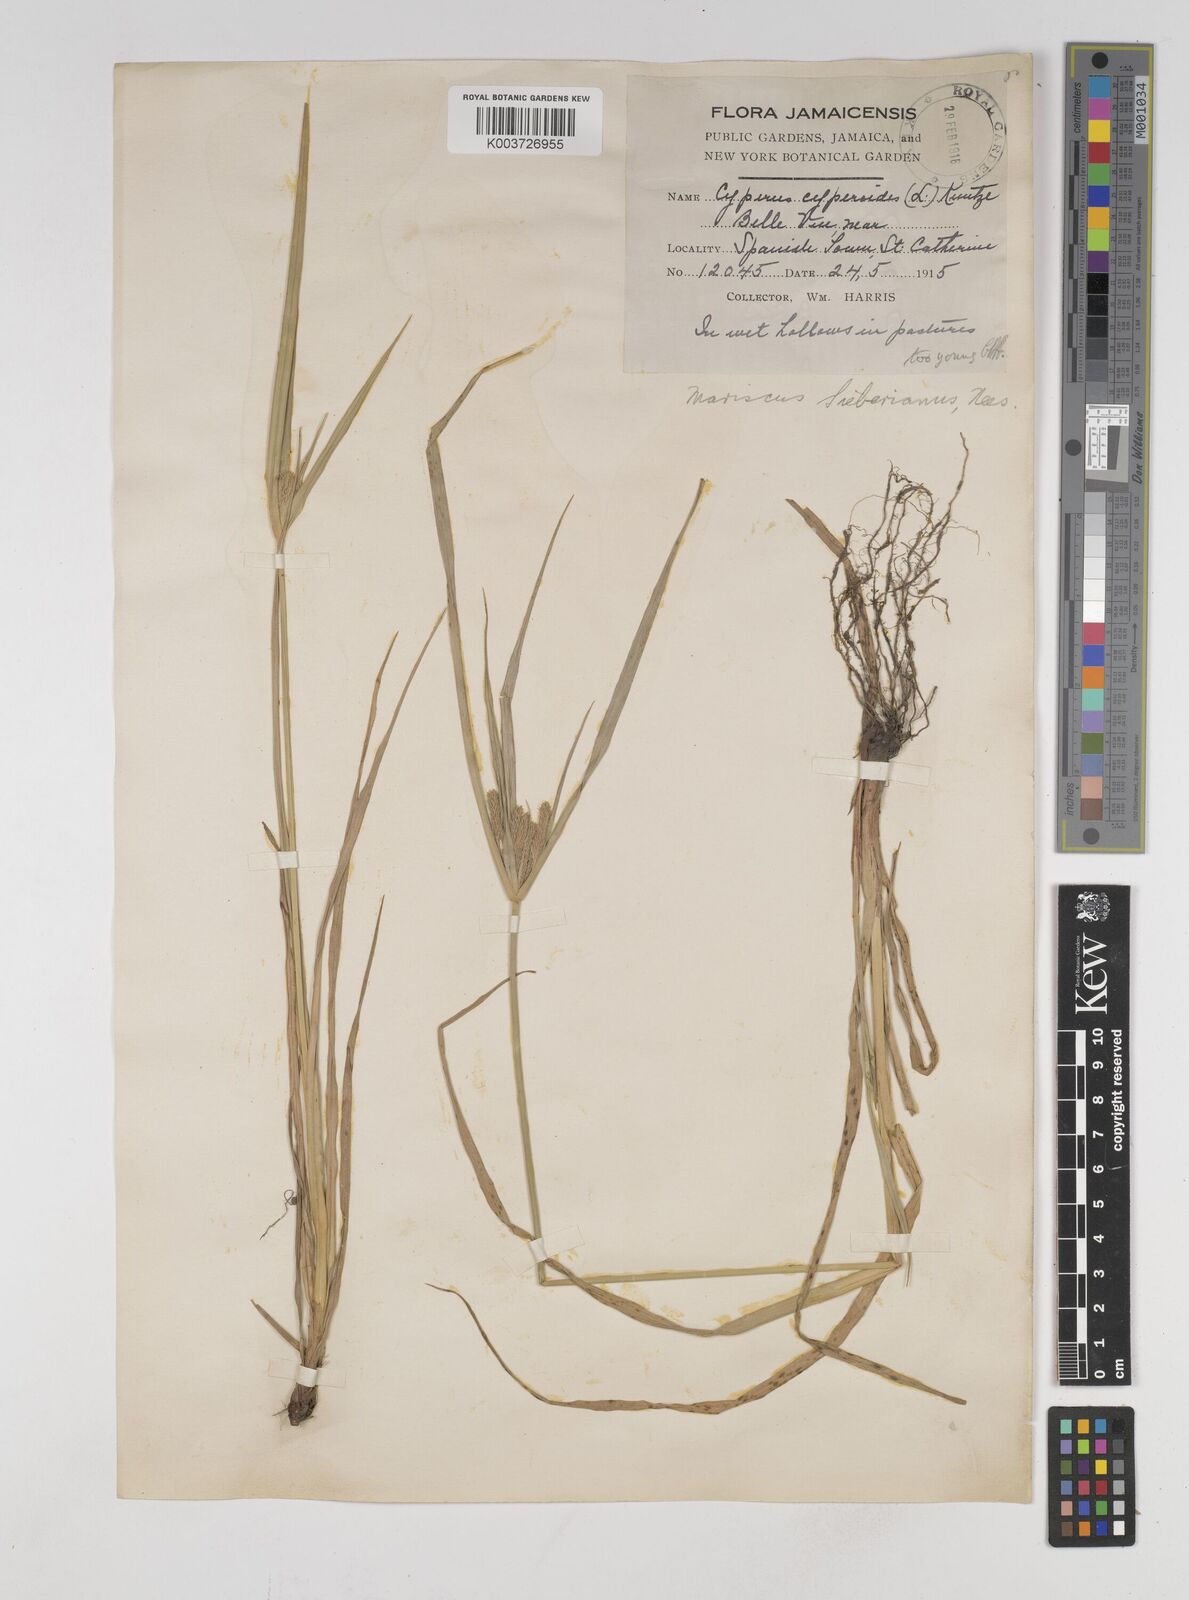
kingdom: Plantae
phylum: Tracheophyta
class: Liliopsida
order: Poales
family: Cyperaceae
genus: Cyperus
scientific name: Cyperus cyperoides
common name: Pacific island flat sedge
